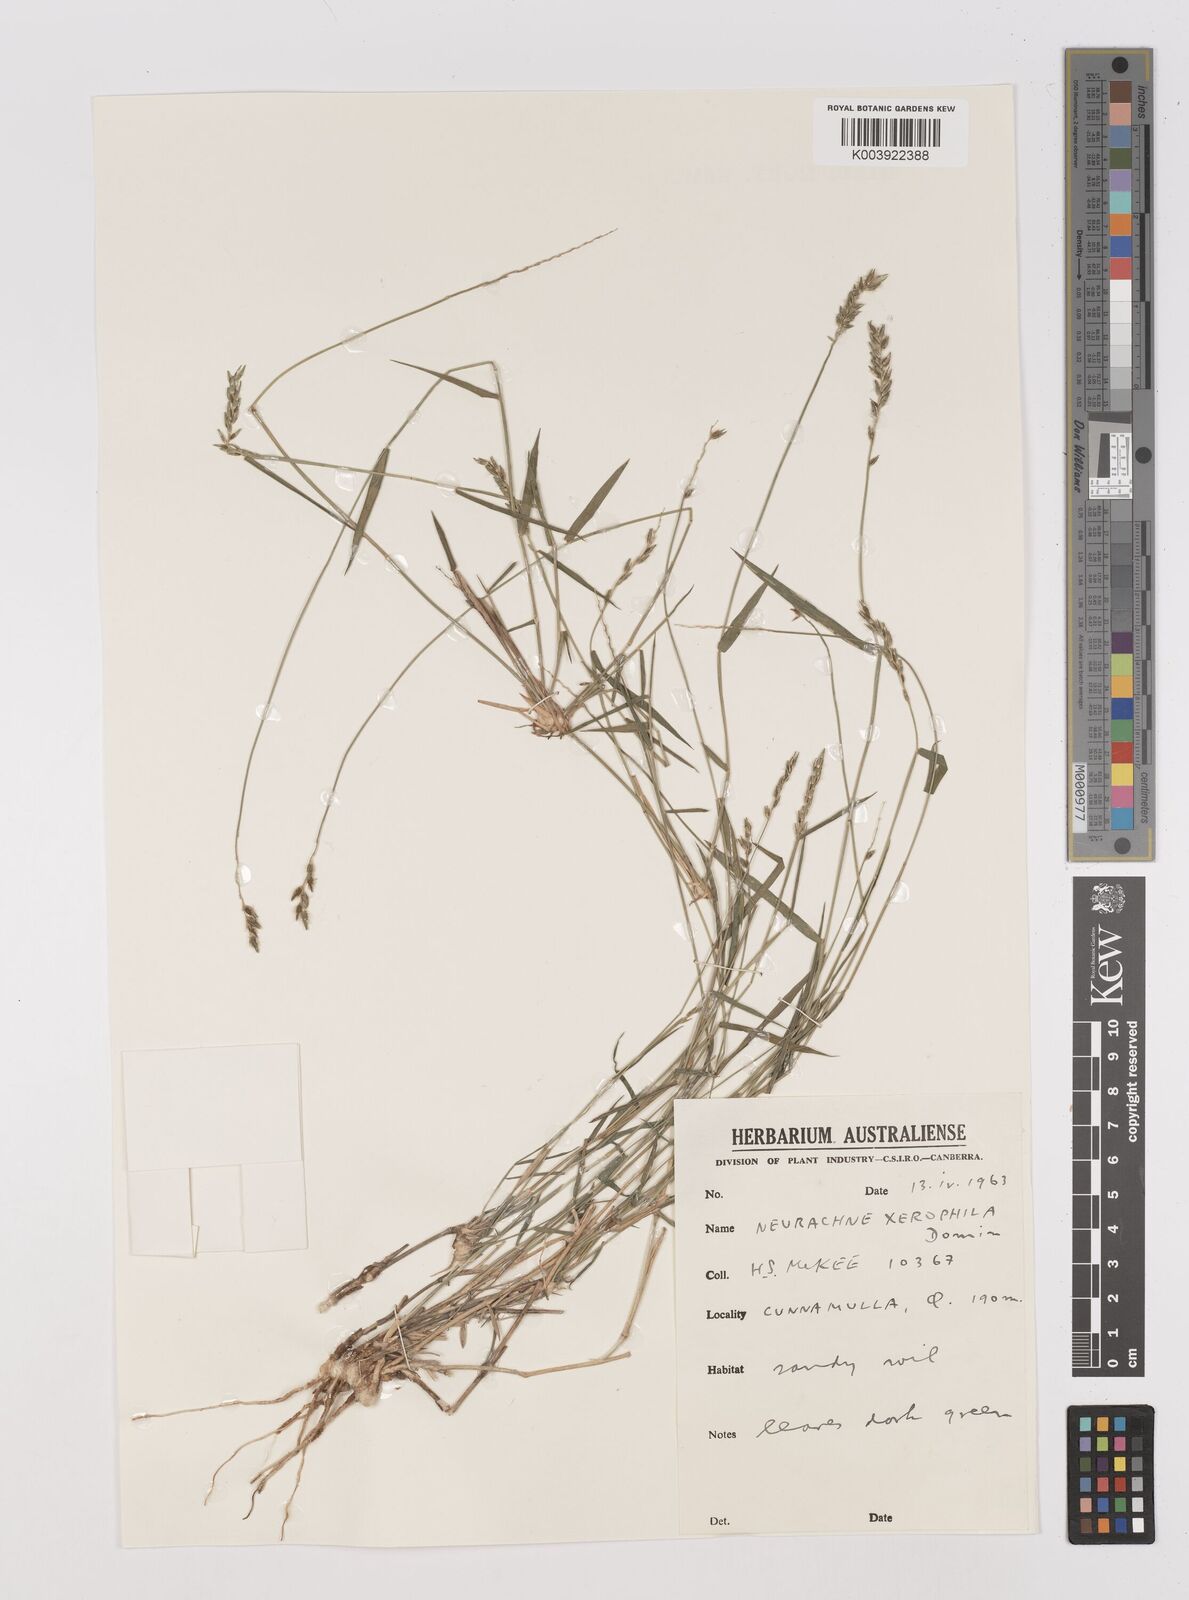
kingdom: Plantae
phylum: Tracheophyta
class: Liliopsida
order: Poales
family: Poaceae
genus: Thyridolepis
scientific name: Thyridolepis xerophila
